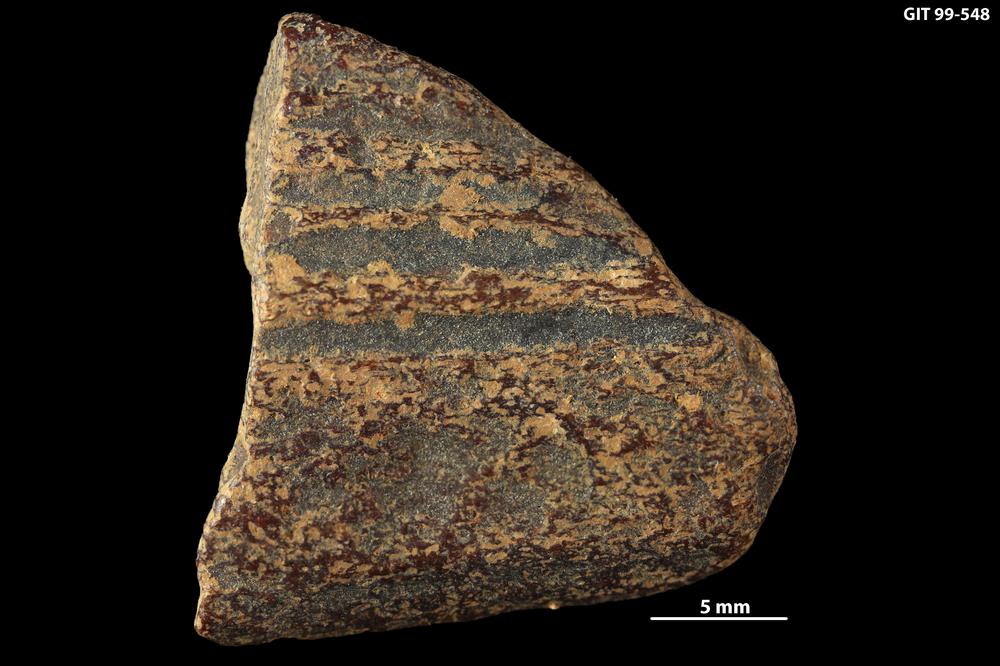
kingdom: Animalia
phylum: Chordata
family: Homostiidae
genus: Homostius
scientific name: Homostius
